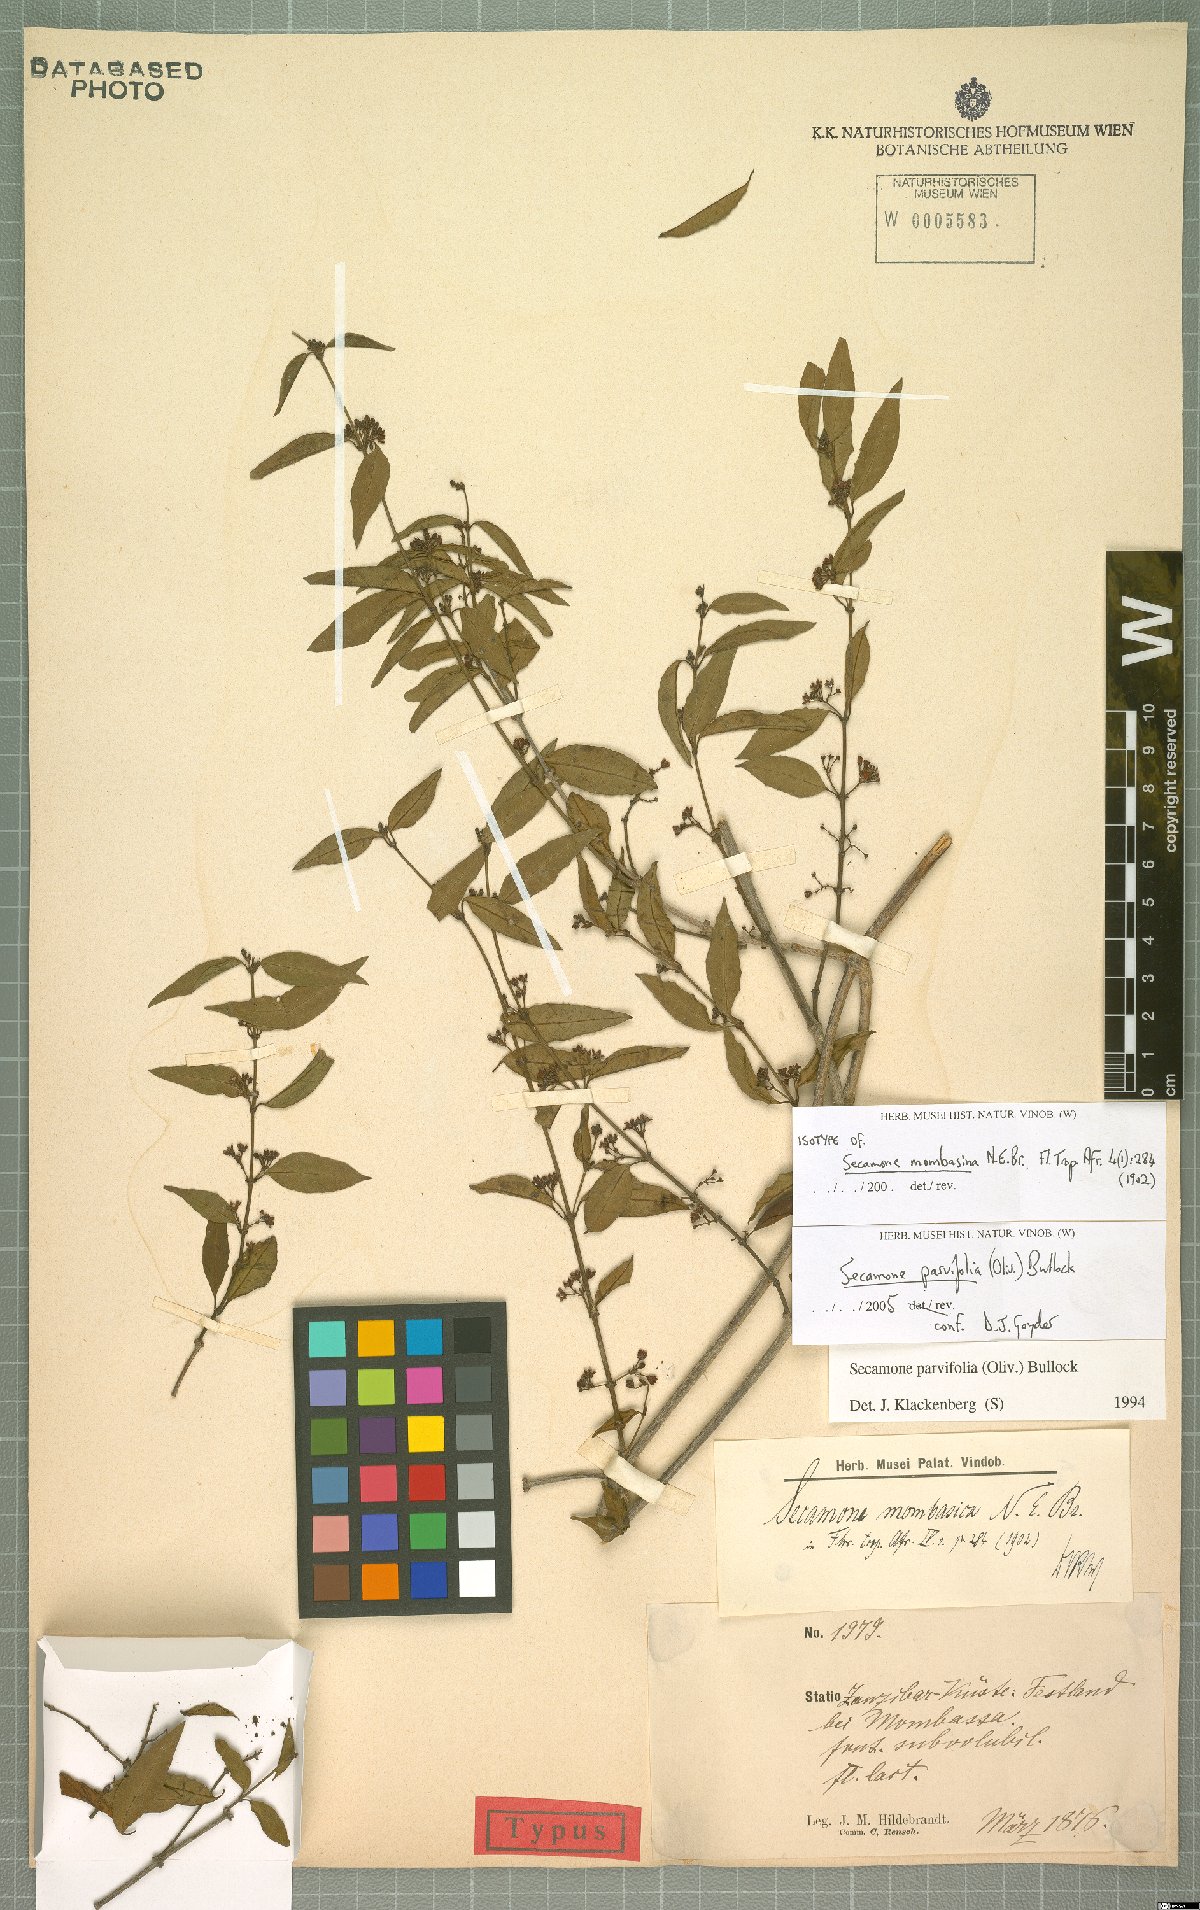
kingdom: Plantae
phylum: Tracheophyta
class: Magnoliopsida
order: Gentianales
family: Apocynaceae
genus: Secamone
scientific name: Secamone schweinfurthii
